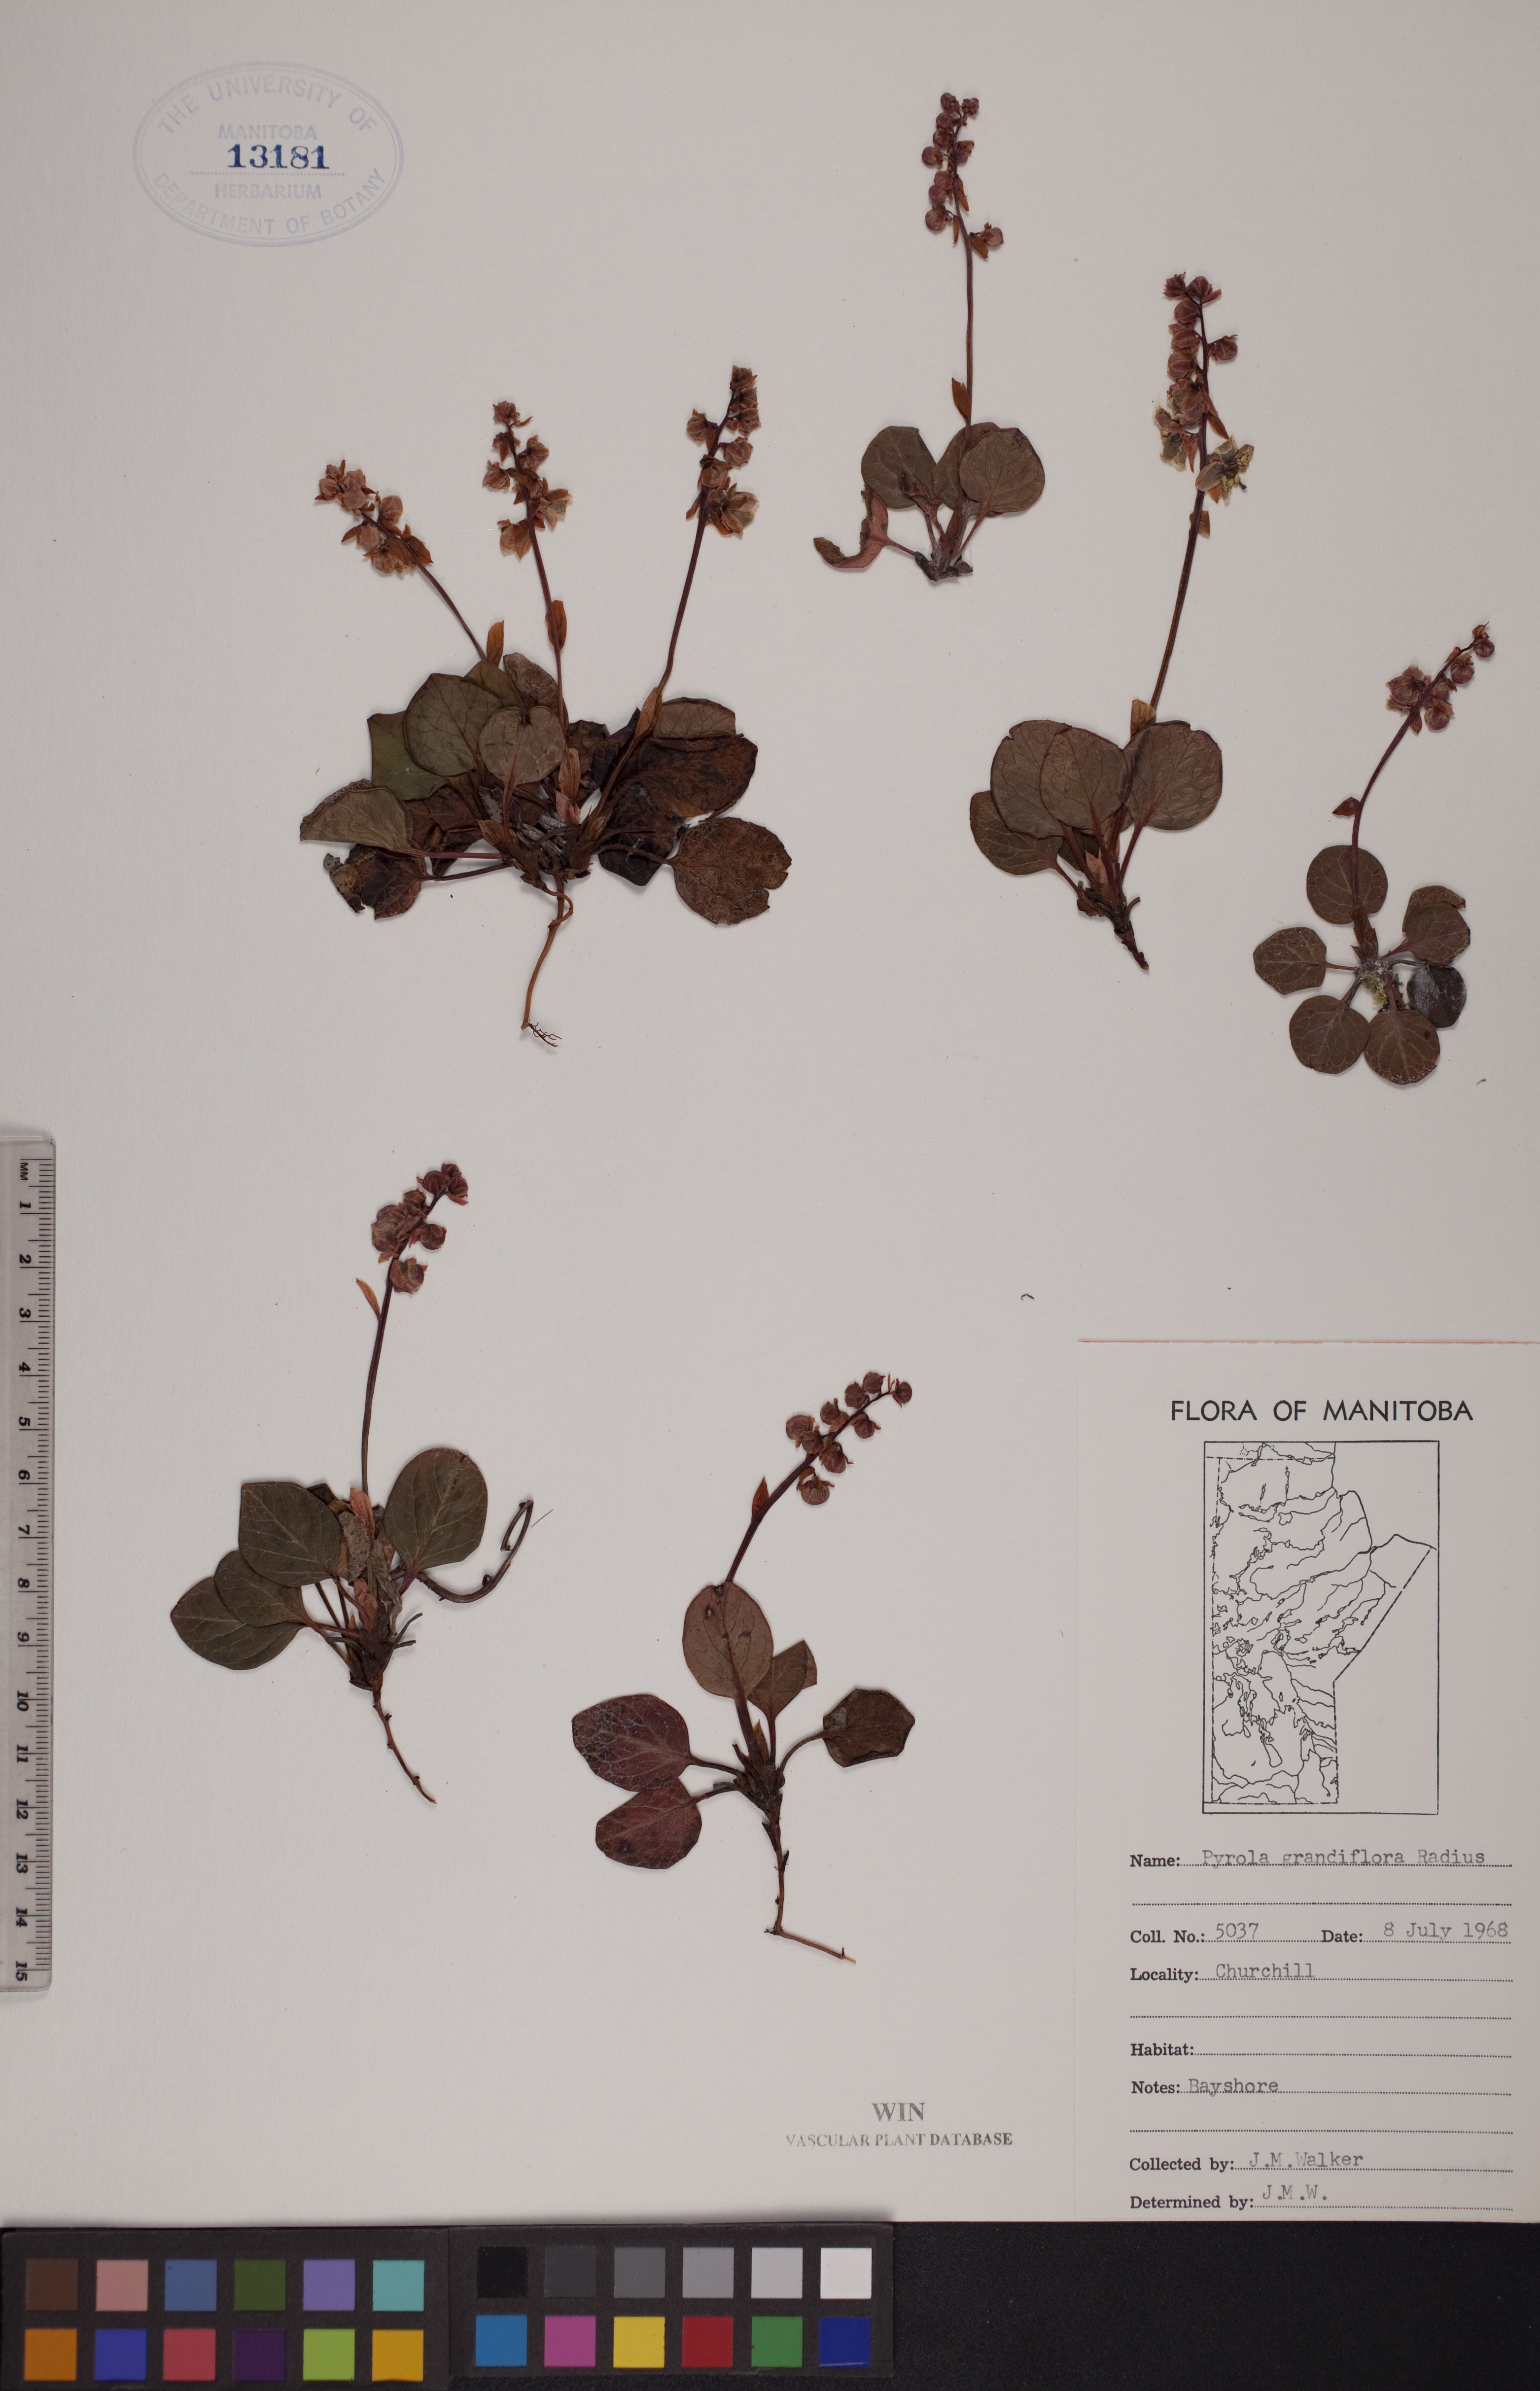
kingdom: Plantae
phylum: Tracheophyta
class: Magnoliopsida
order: Ericales
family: Ericaceae
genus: Pyrola
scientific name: Pyrola grandiflora
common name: Arctic pyrola
